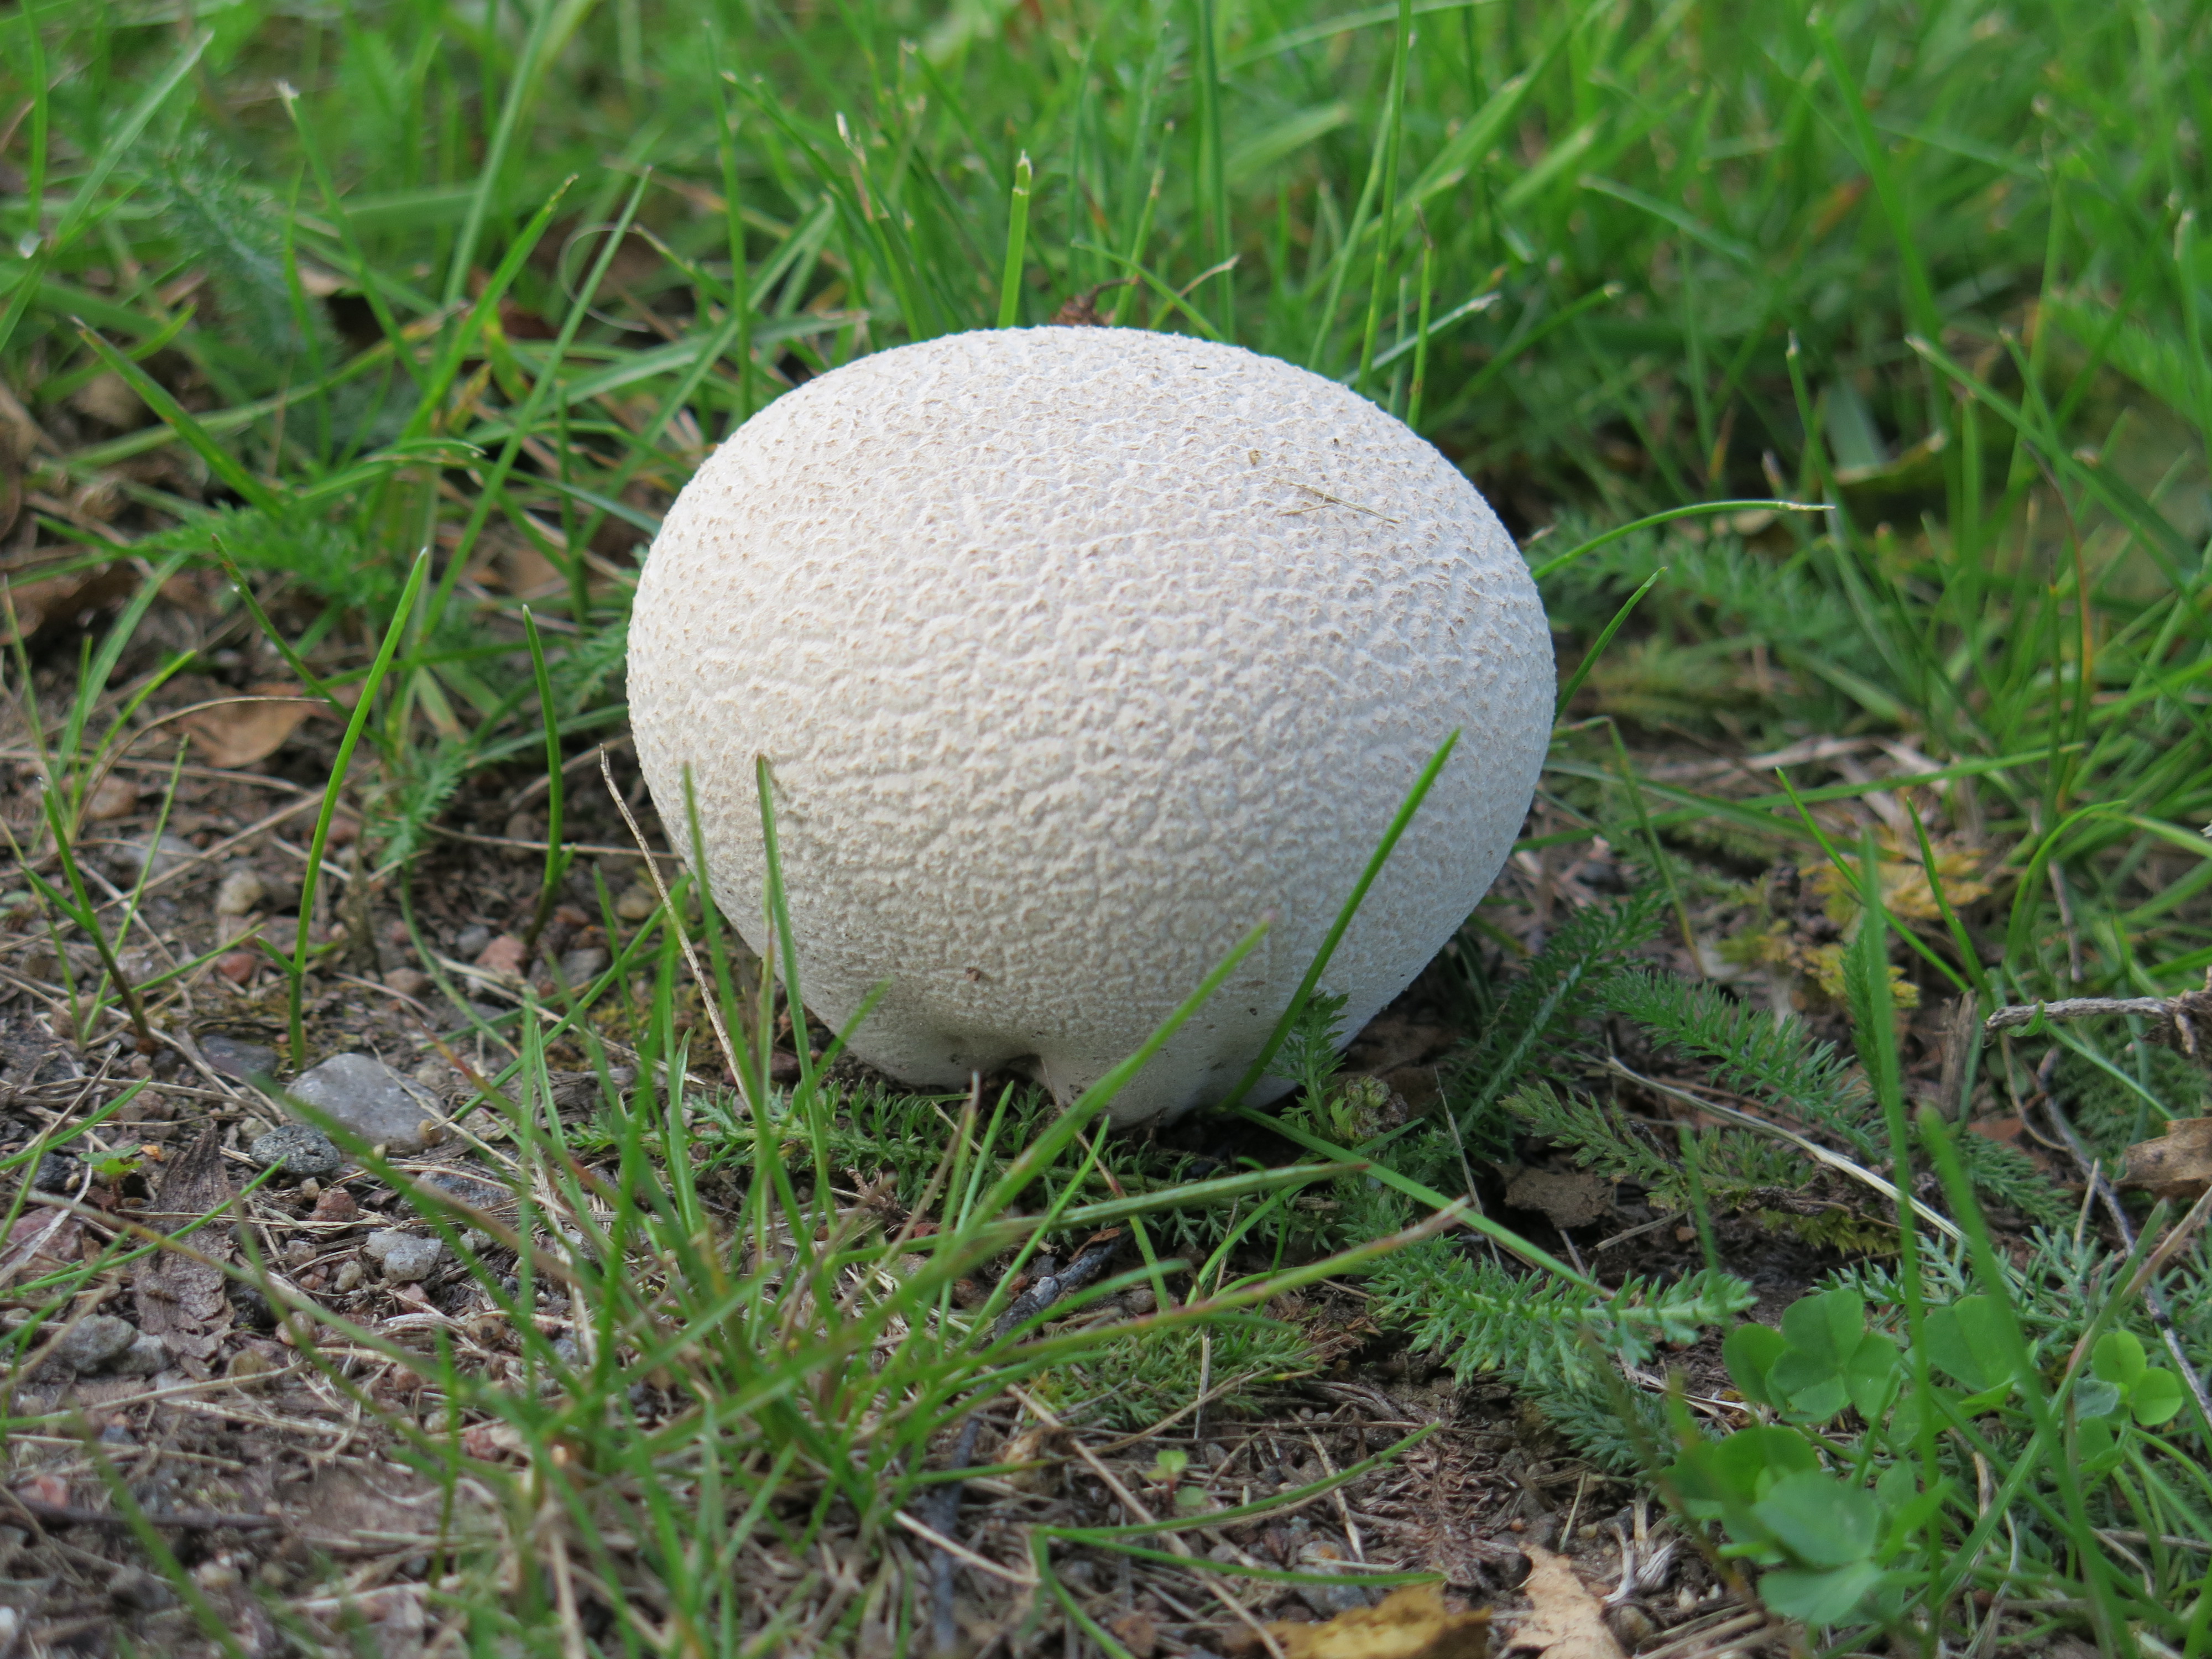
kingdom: Fungi
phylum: Basidiomycota
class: Agaricomycetes
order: Agaricales
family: Lycoperdaceae
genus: Bovistella
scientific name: Bovistella utriformis
